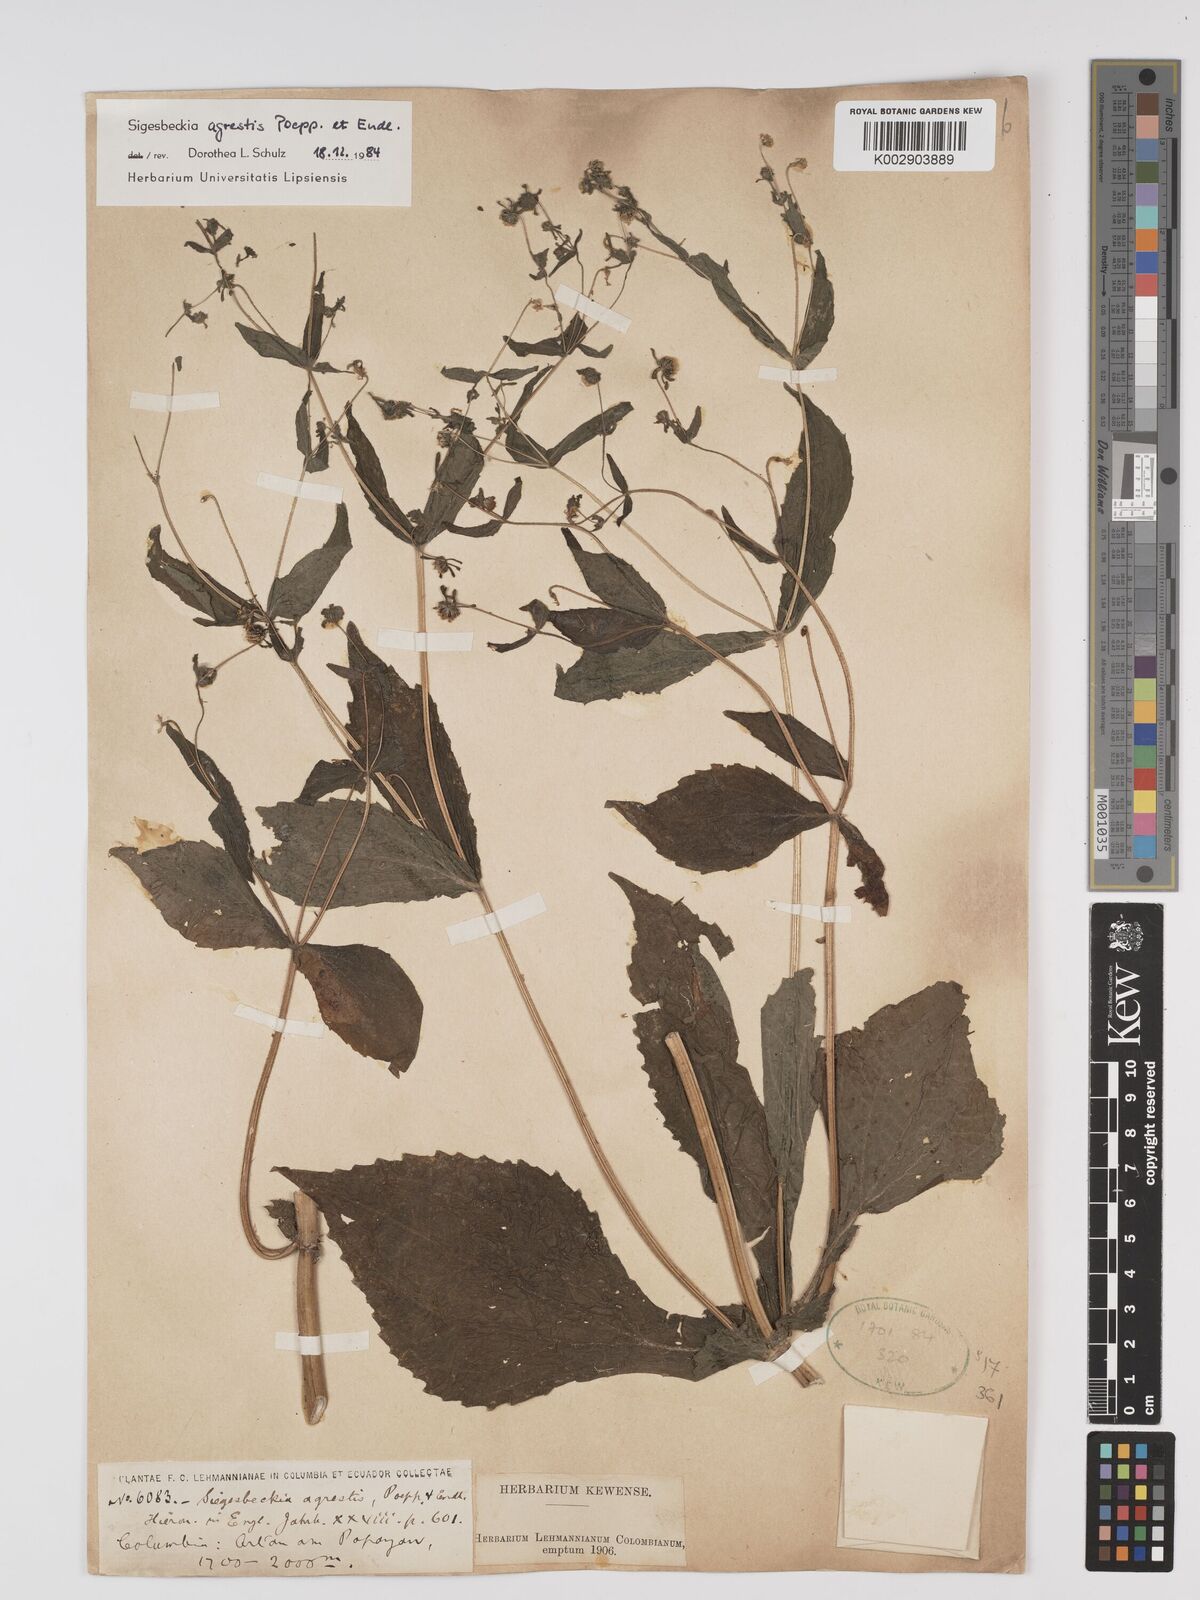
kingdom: Plantae
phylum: Tracheophyta
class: Magnoliopsida
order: Asterales
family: Asteraceae
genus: Sigesbeckia
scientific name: Sigesbeckia flosculosa
